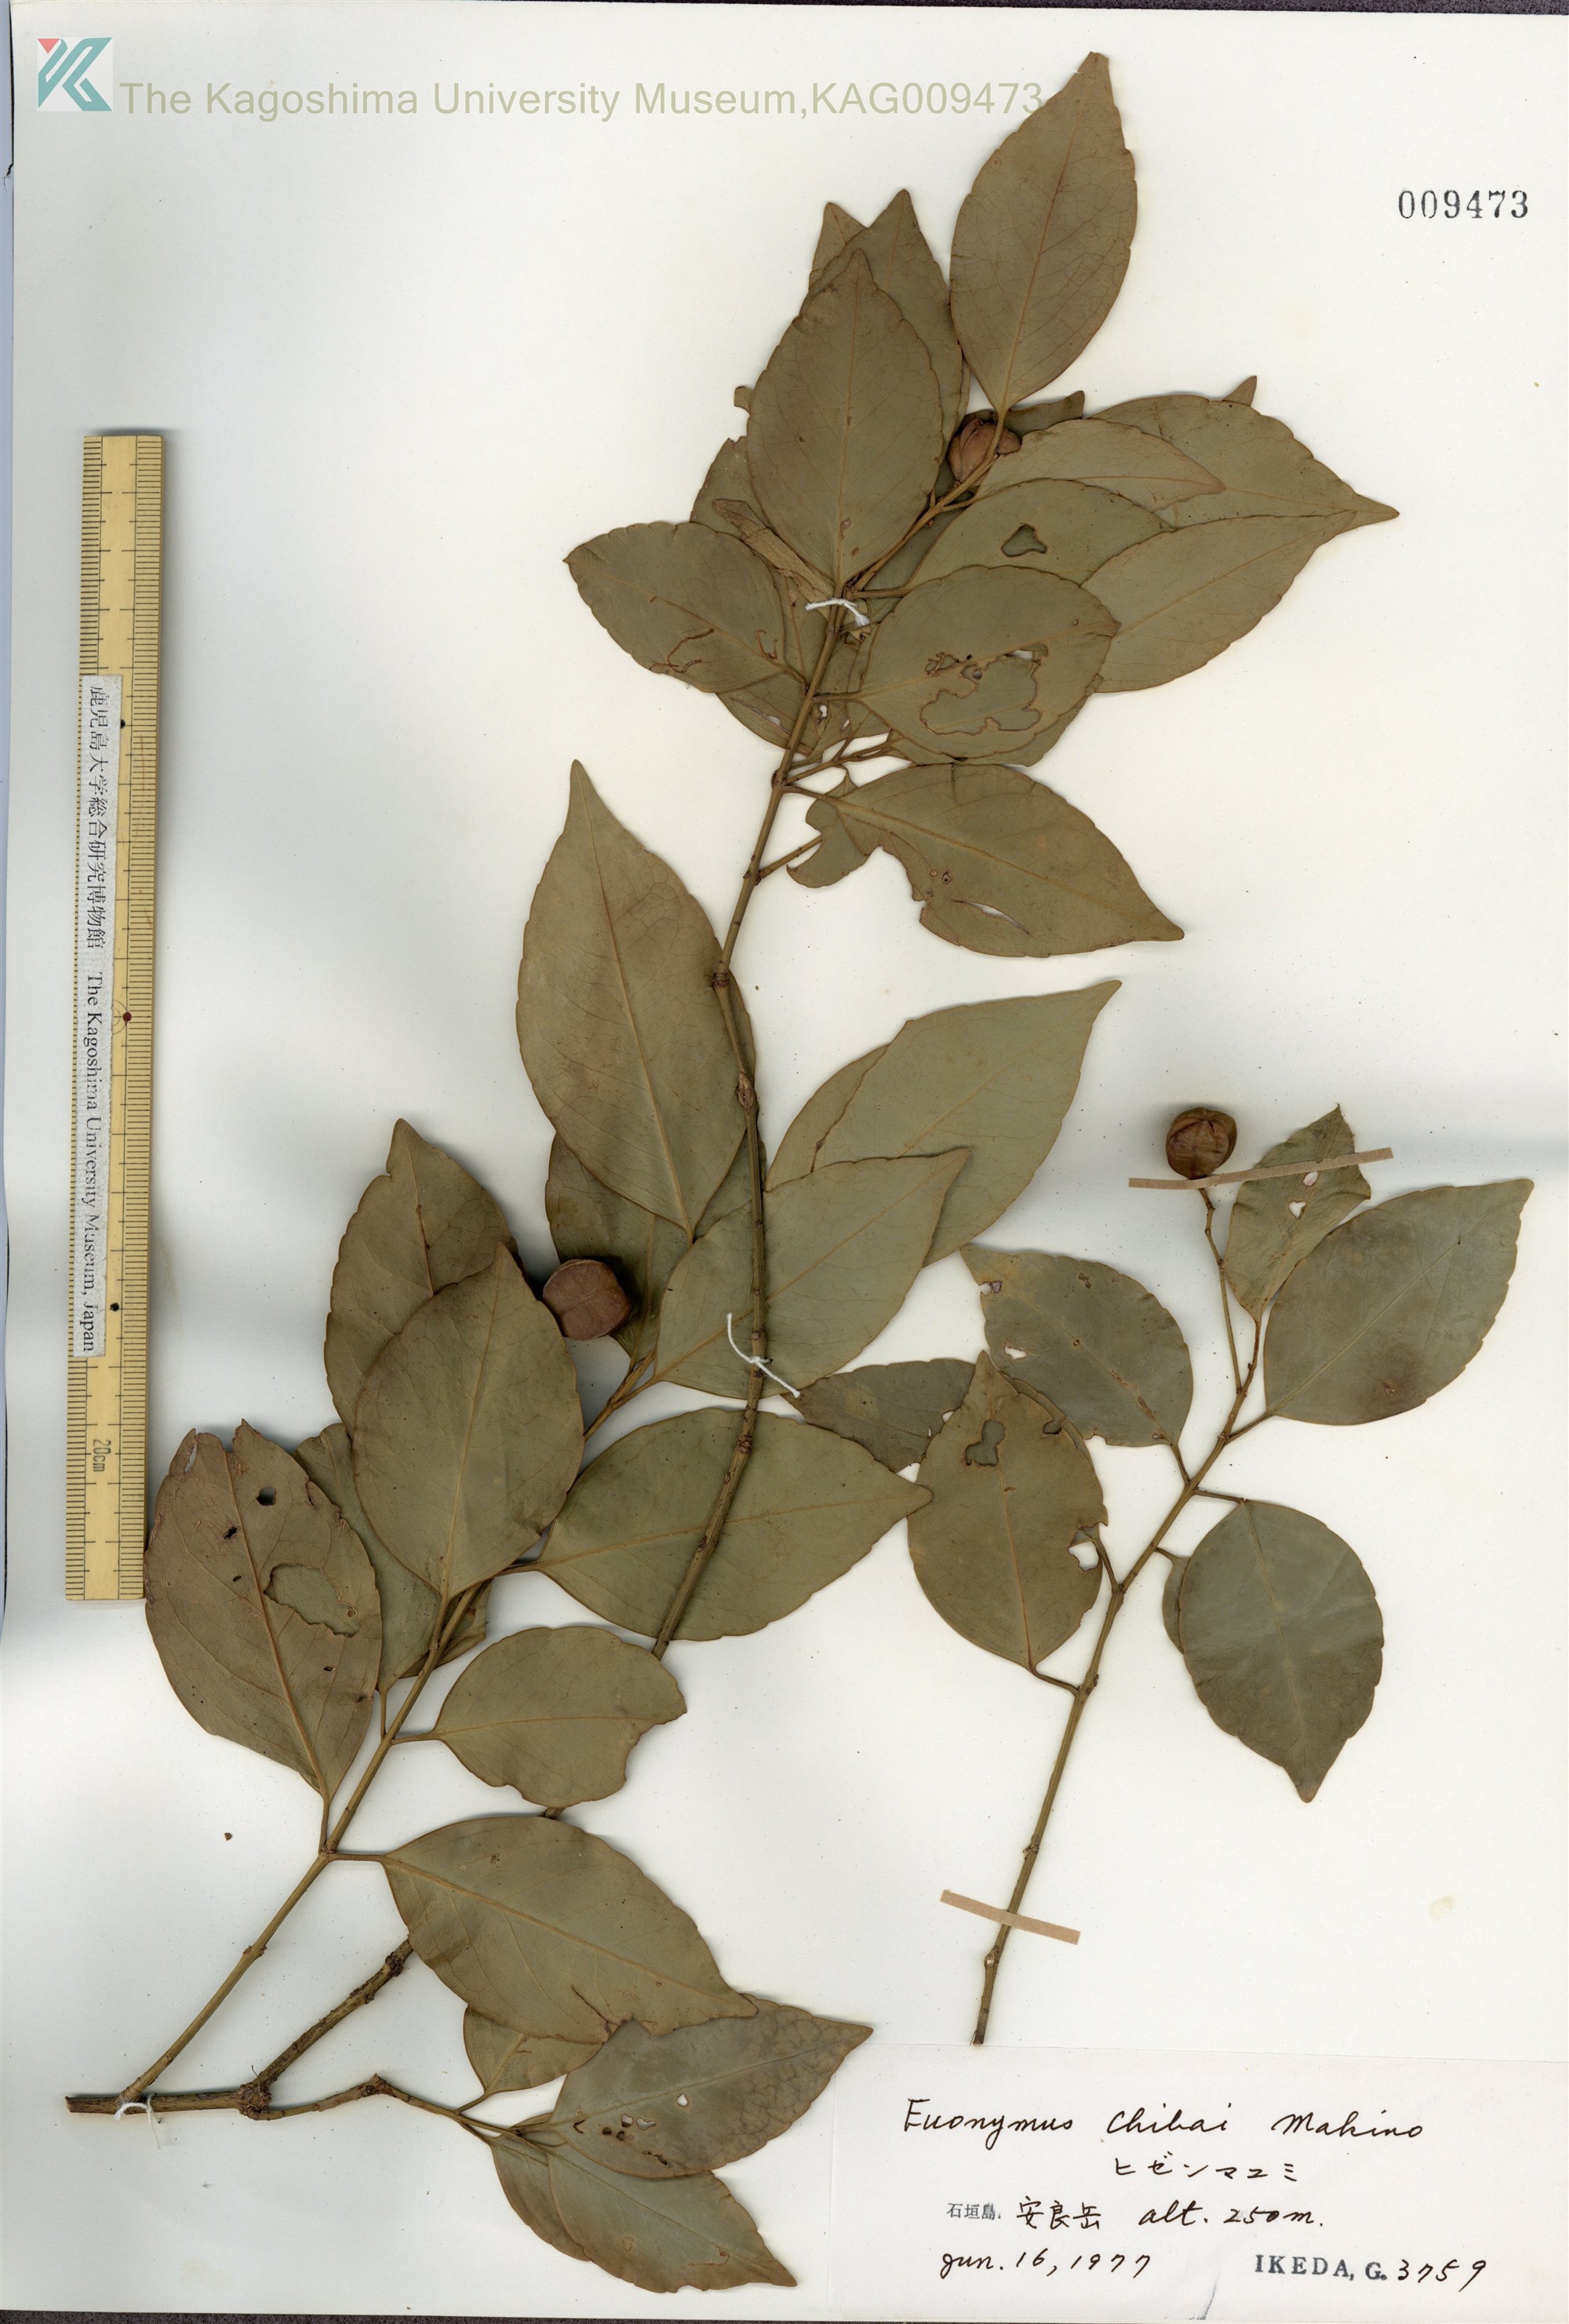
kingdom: Plantae
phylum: Tracheophyta
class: Magnoliopsida
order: Celastrales
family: Celastraceae
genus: Euonymus
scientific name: Euonymus chibae
